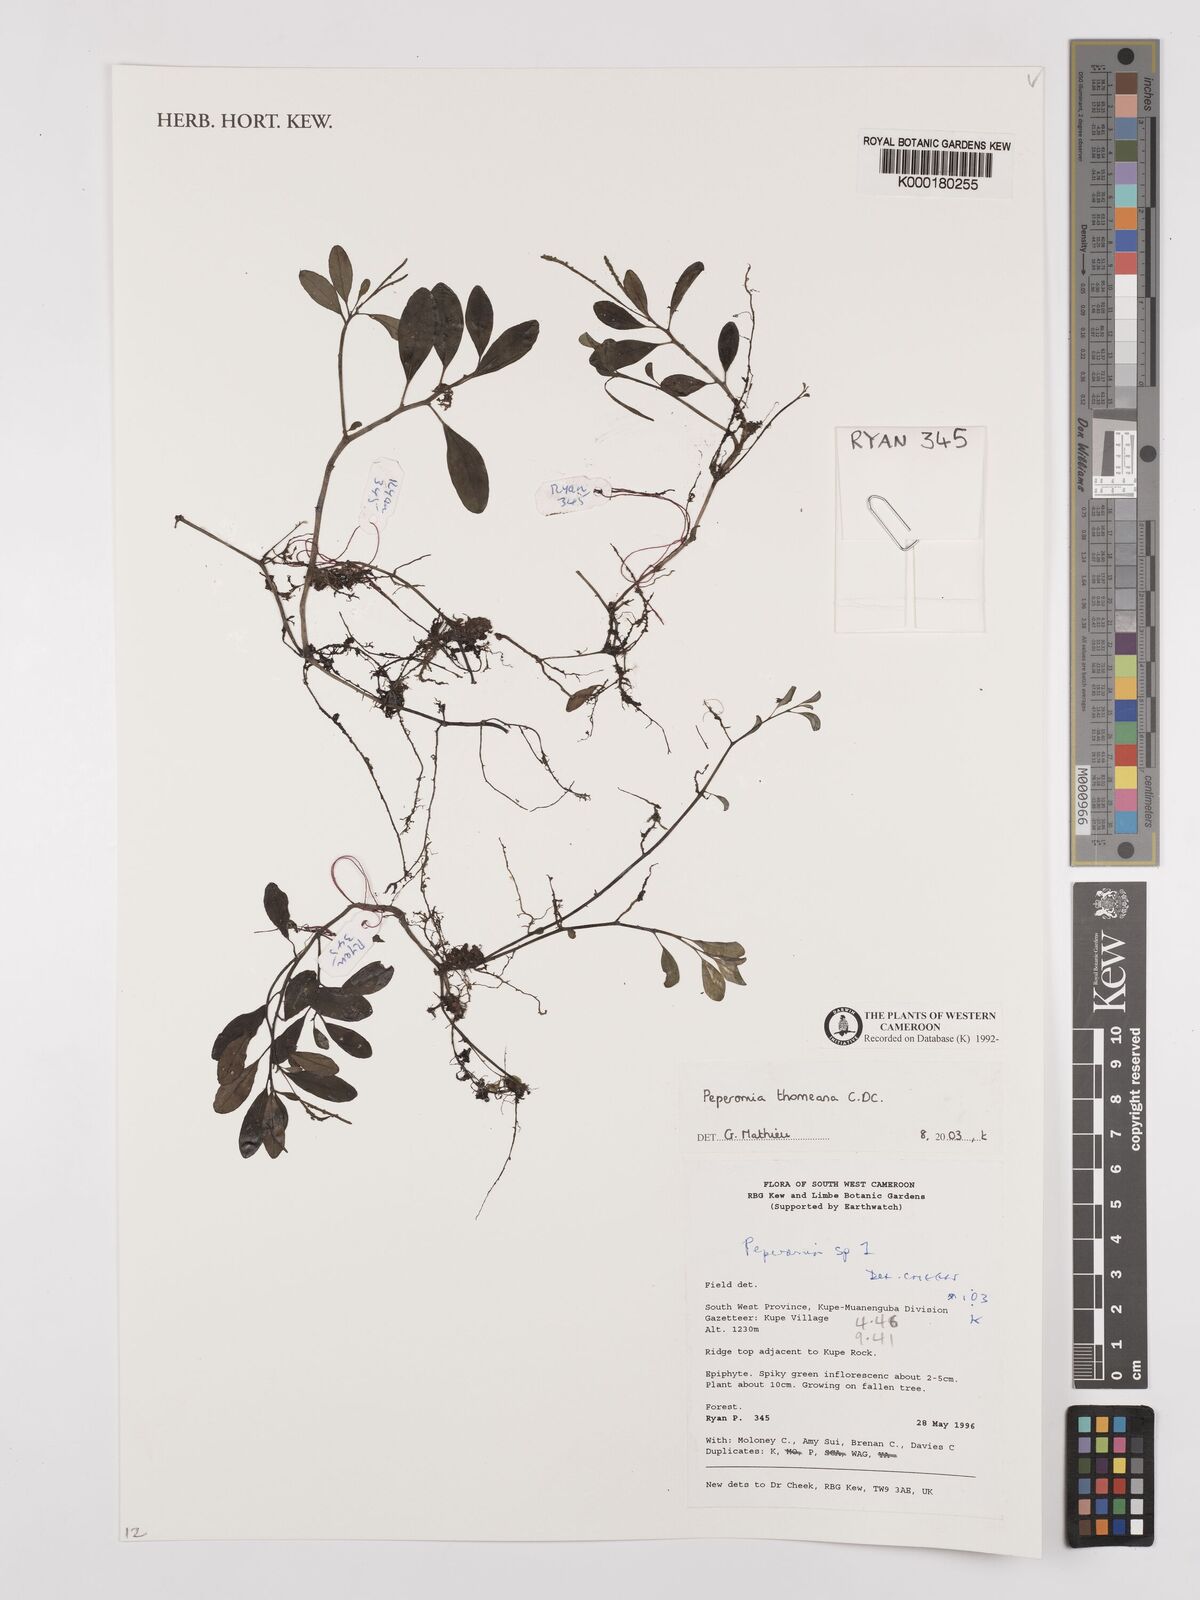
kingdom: Plantae
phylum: Tracheophyta
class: Magnoliopsida
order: Piperales
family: Piperaceae
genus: Peperomia
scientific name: Peperomia thomeana
